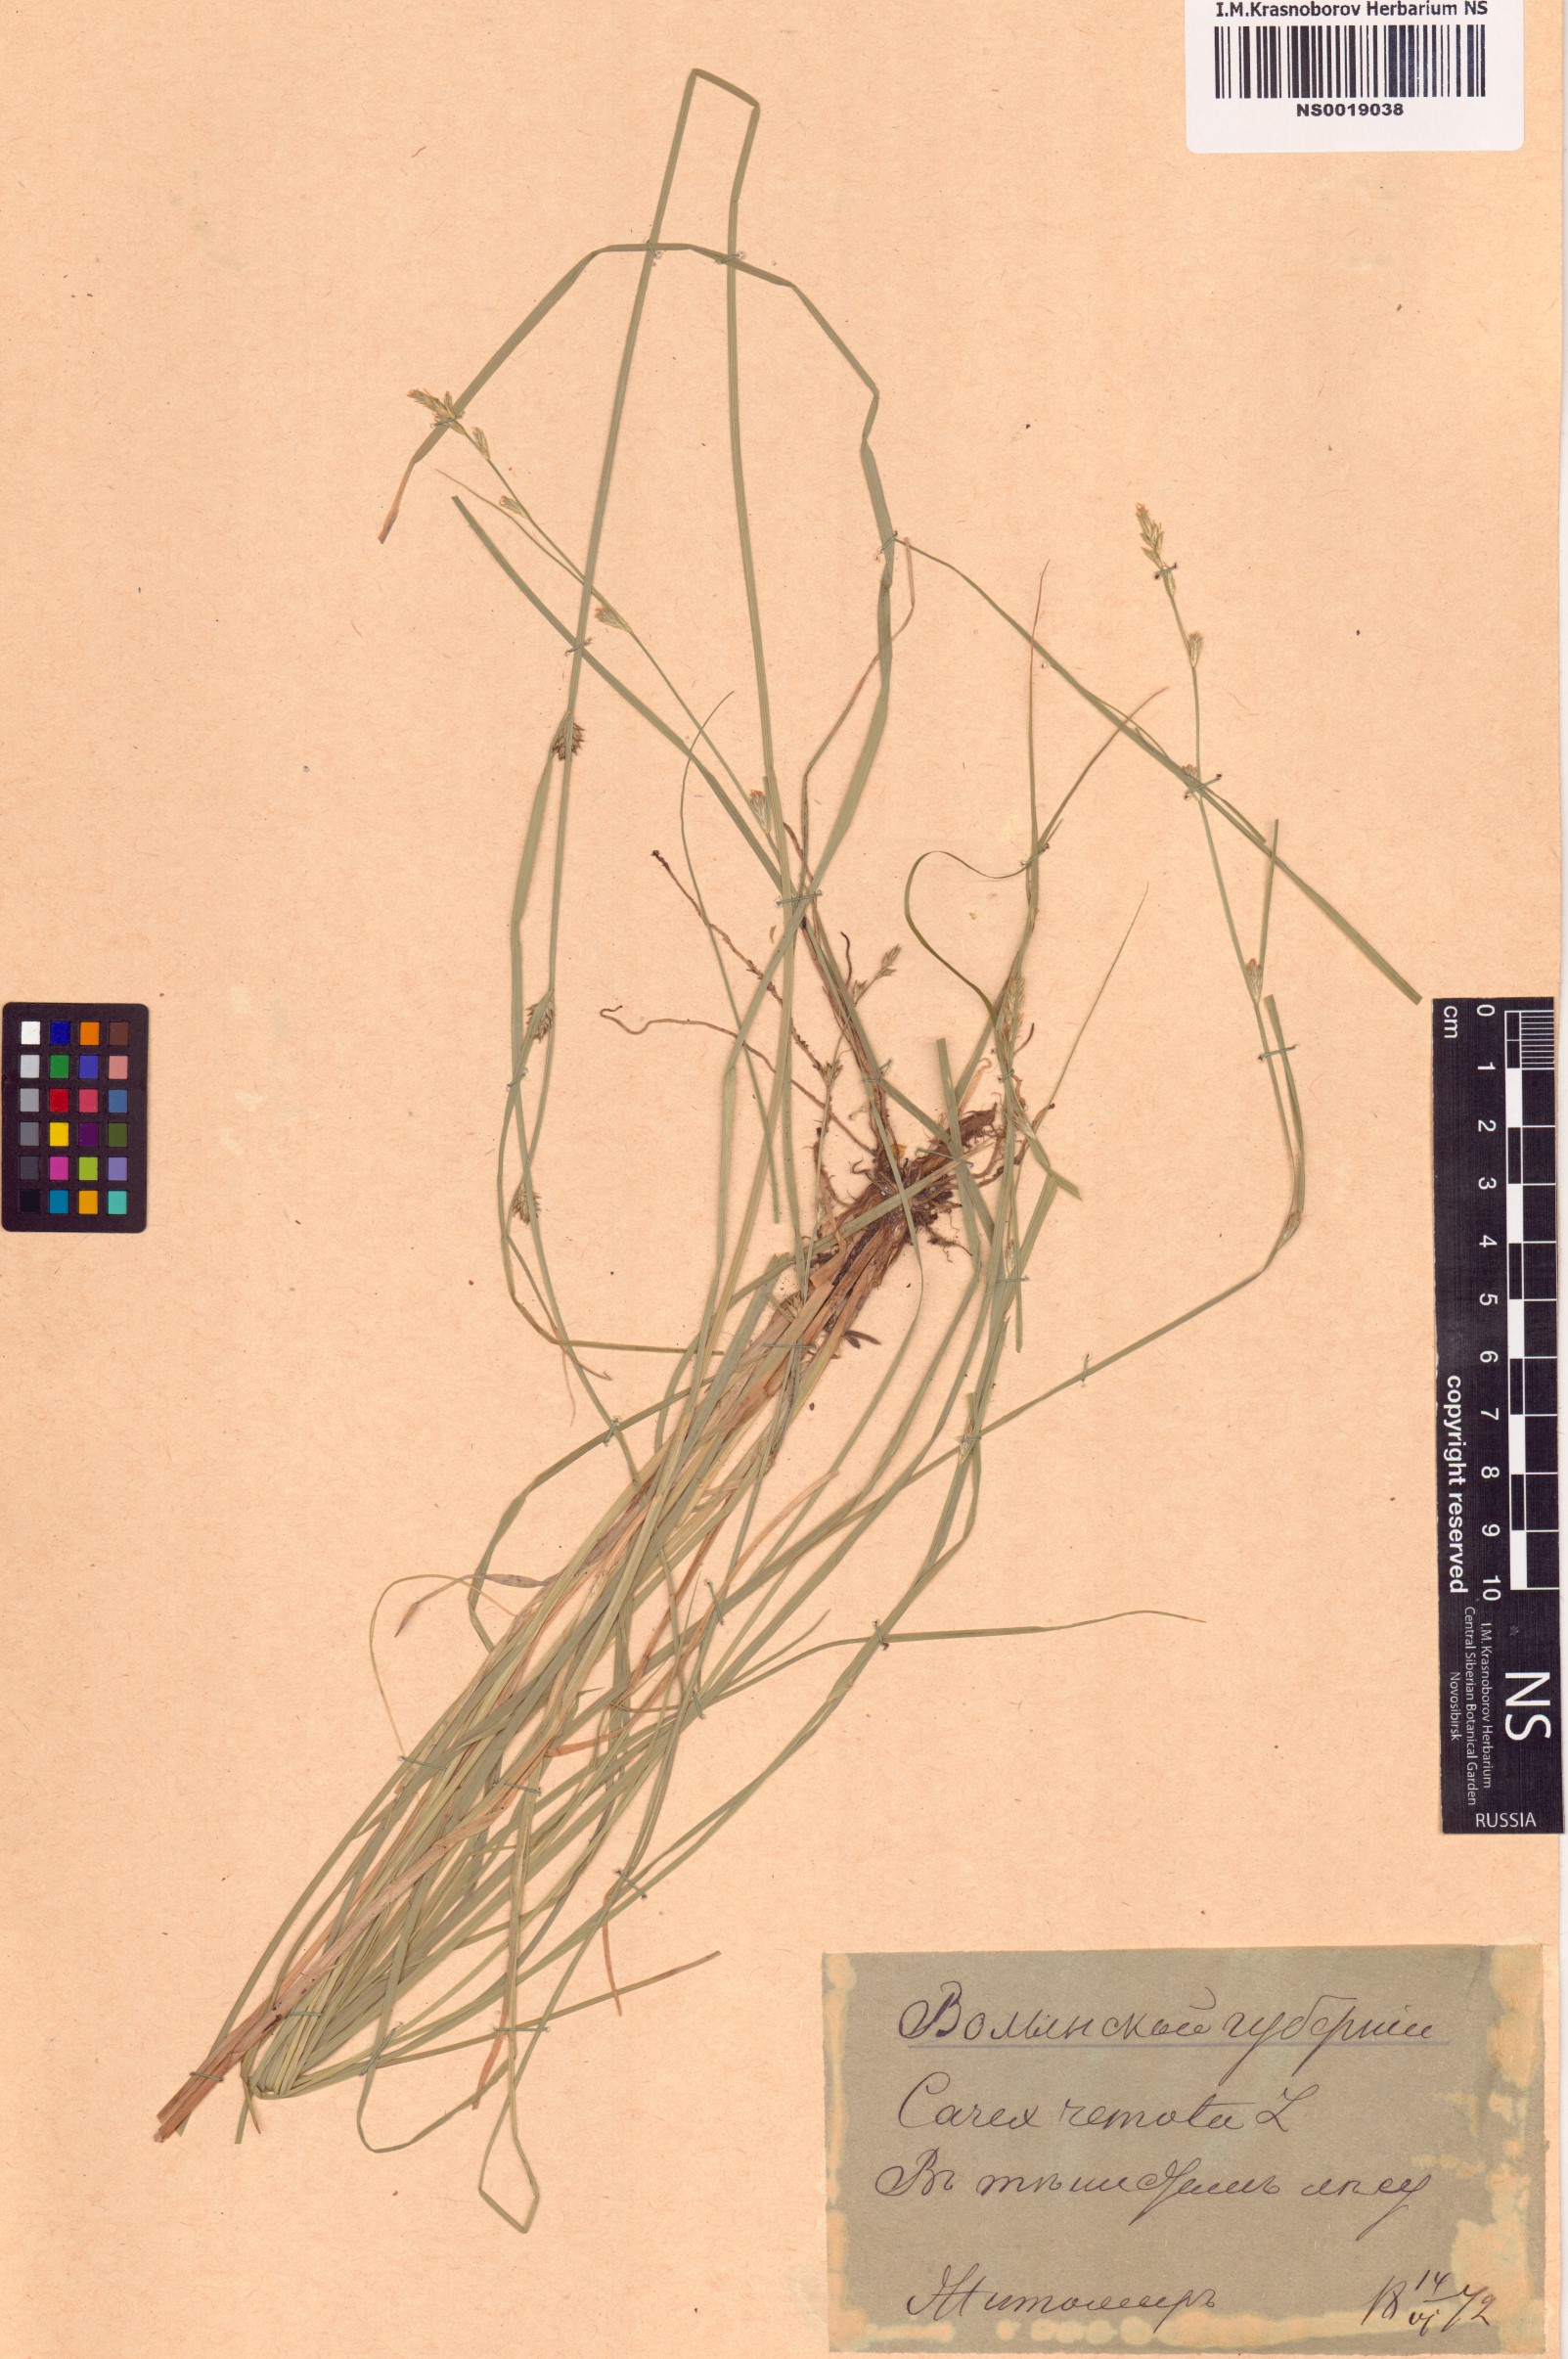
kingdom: Plantae
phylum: Tracheophyta
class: Liliopsida
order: Poales
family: Cyperaceae
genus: Carex
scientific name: Carex remota
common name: Remote sedge
